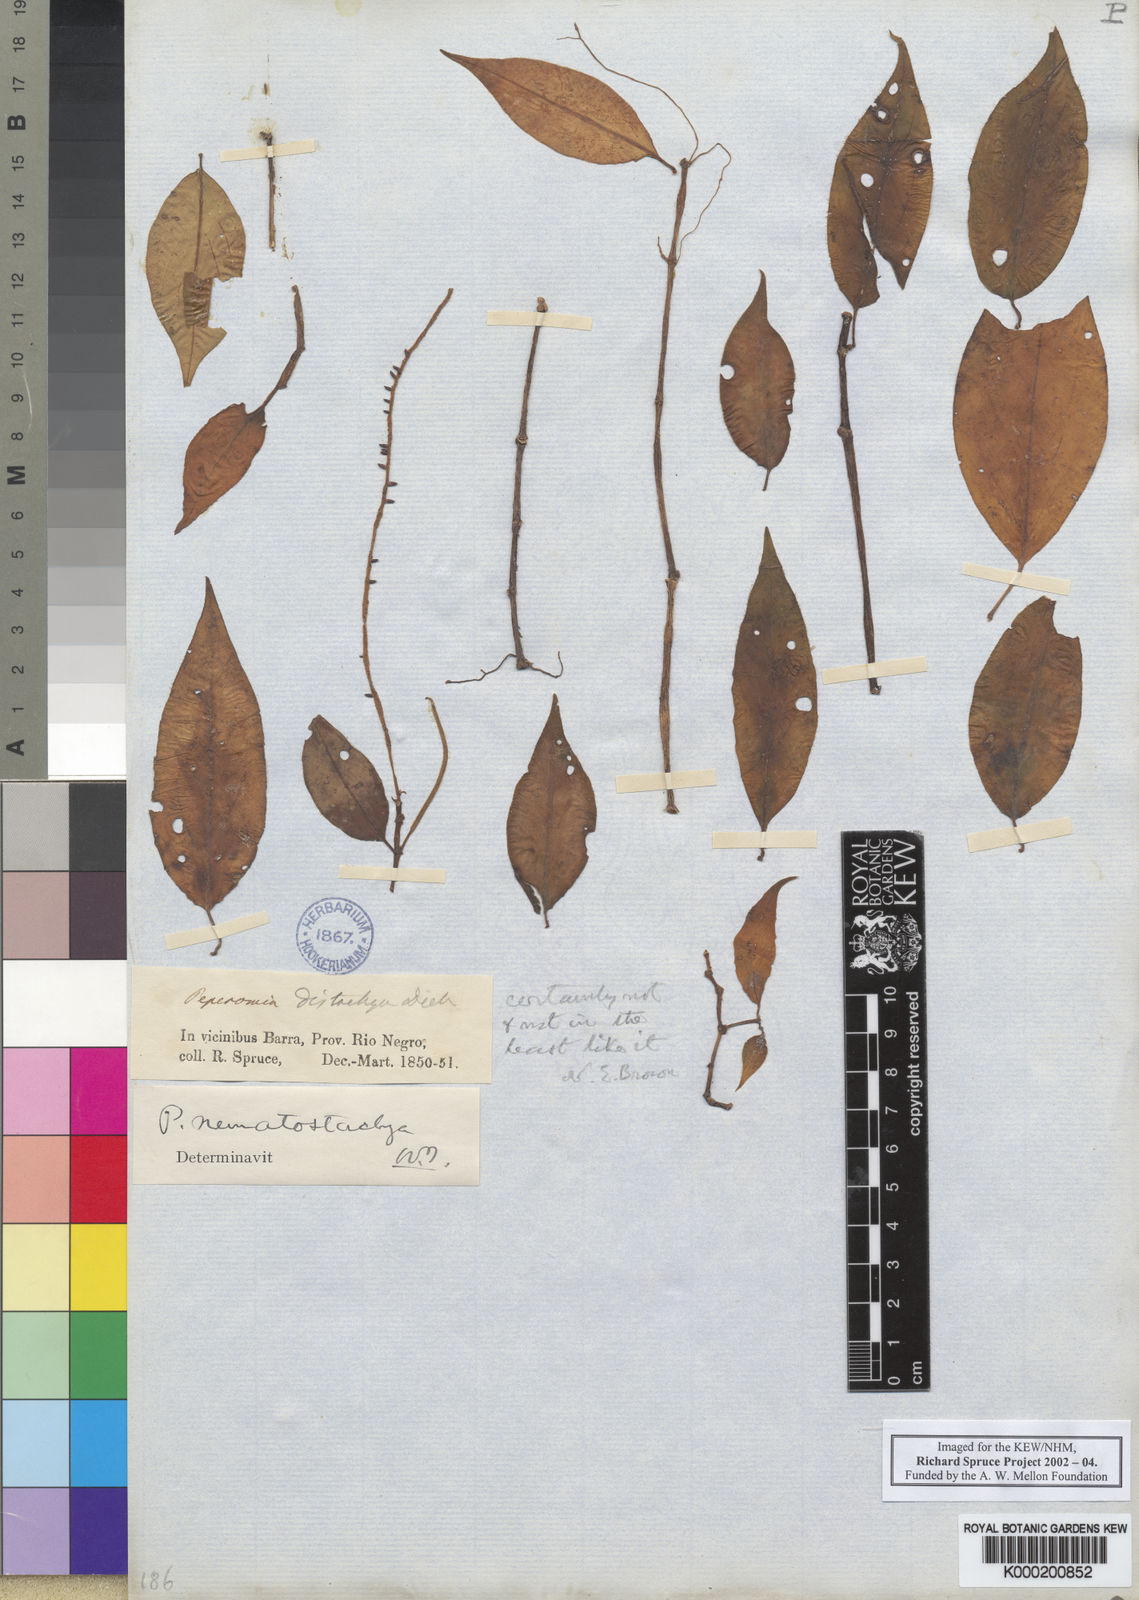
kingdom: Plantae
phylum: Tracheophyta
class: Magnoliopsida
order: Piperales
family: Piperaceae
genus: Peperomia
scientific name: Peperomia macrostachyos
